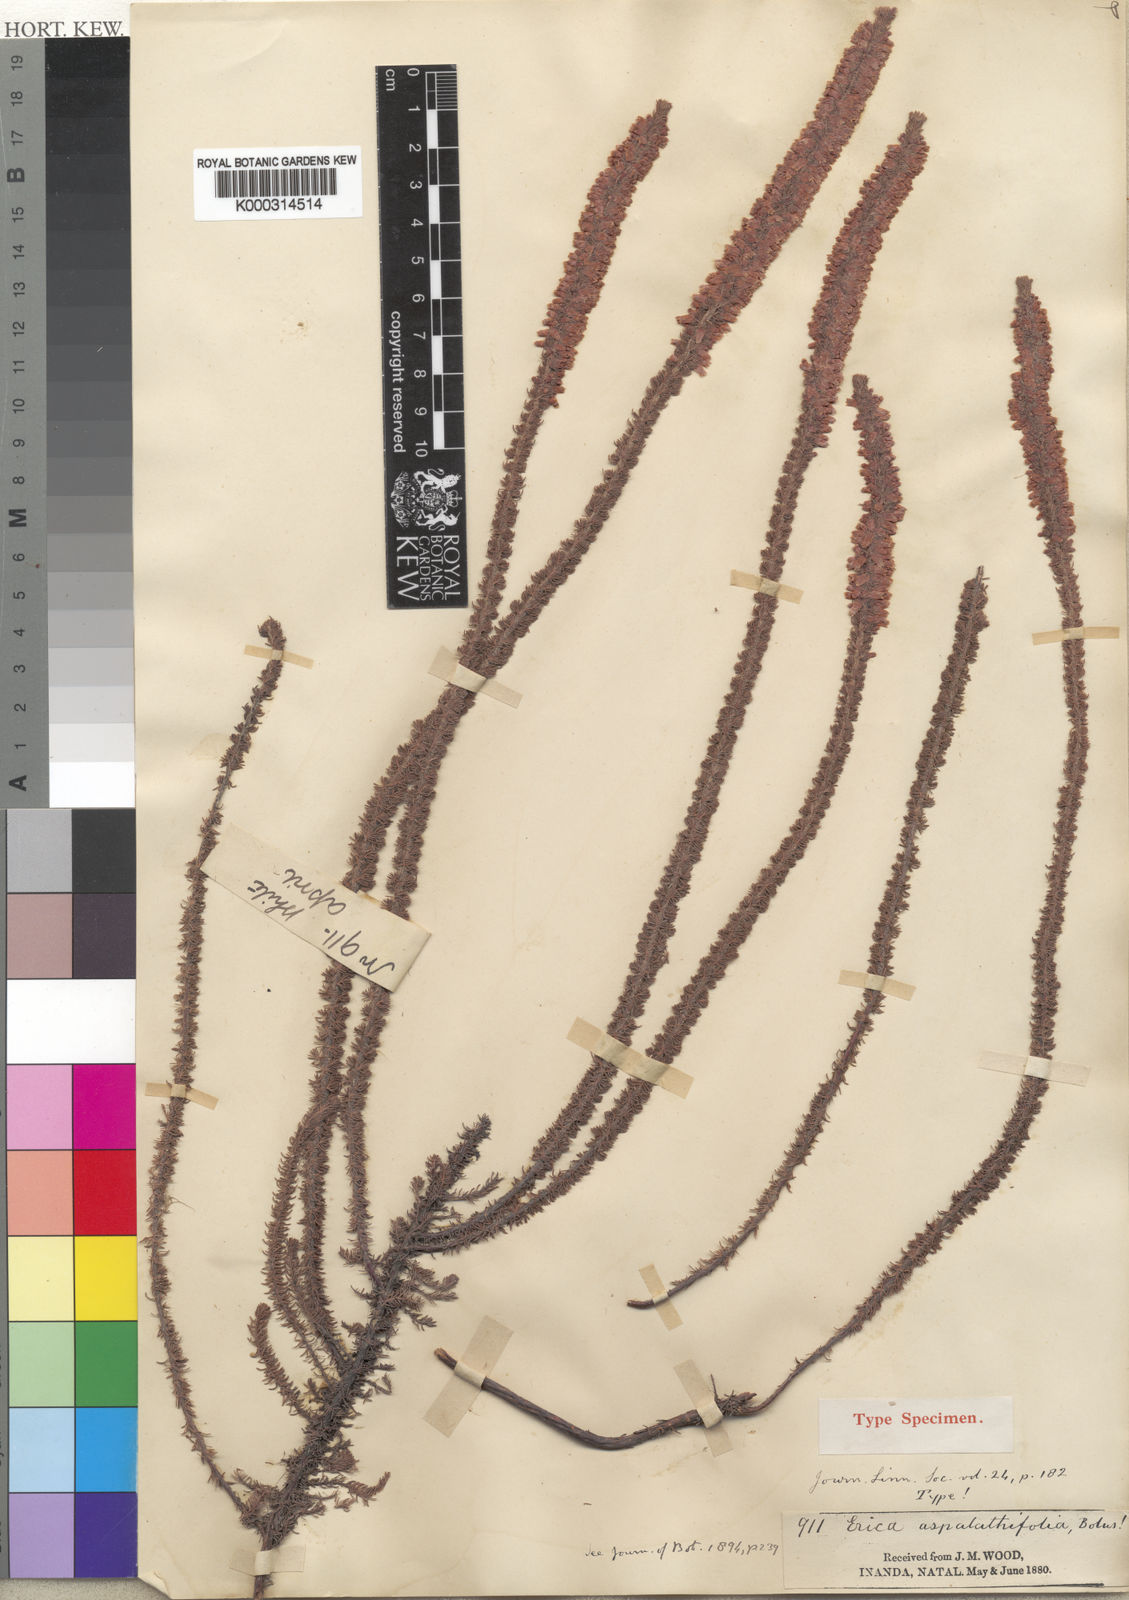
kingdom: Plantae
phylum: Tracheophyta
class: Magnoliopsida
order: Ericales
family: Ericaceae
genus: Erica
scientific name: Erica aspalathifolia
